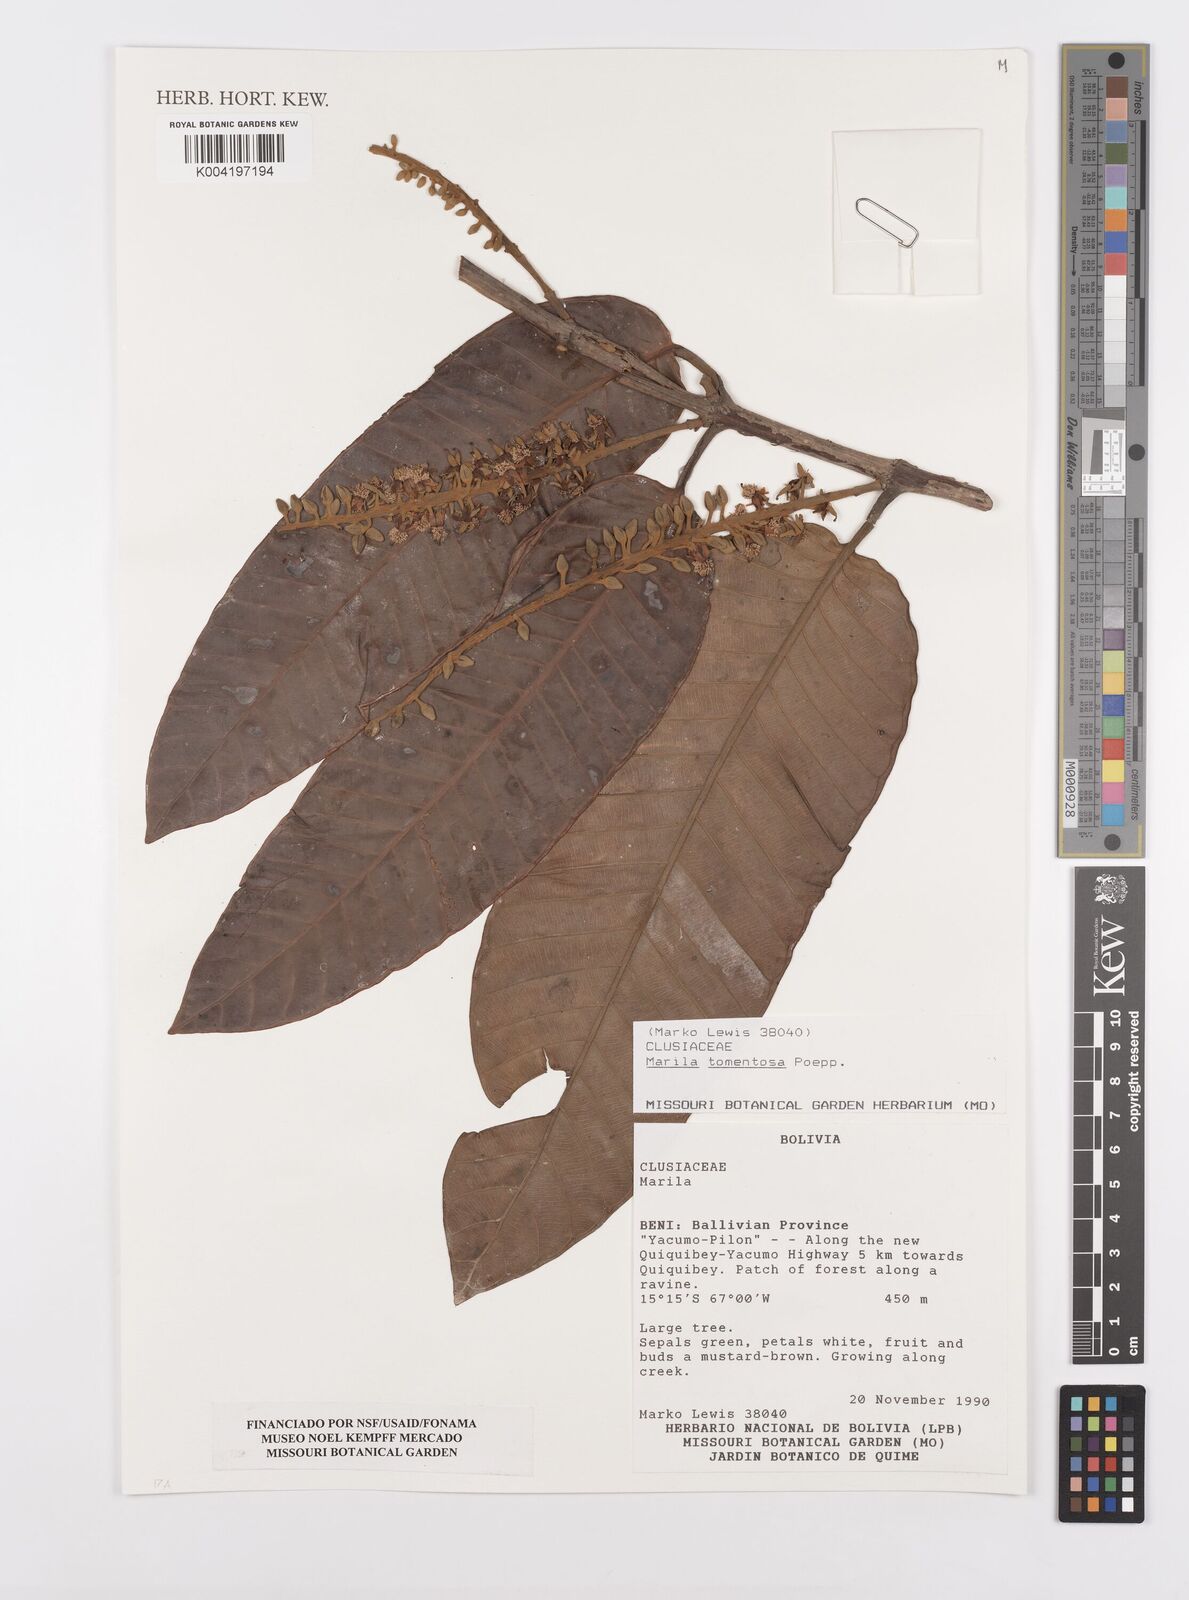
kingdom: Plantae
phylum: Tracheophyta
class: Magnoliopsida
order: Malpighiales
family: Calophyllaceae
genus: Marila
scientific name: Marila tomentosa
